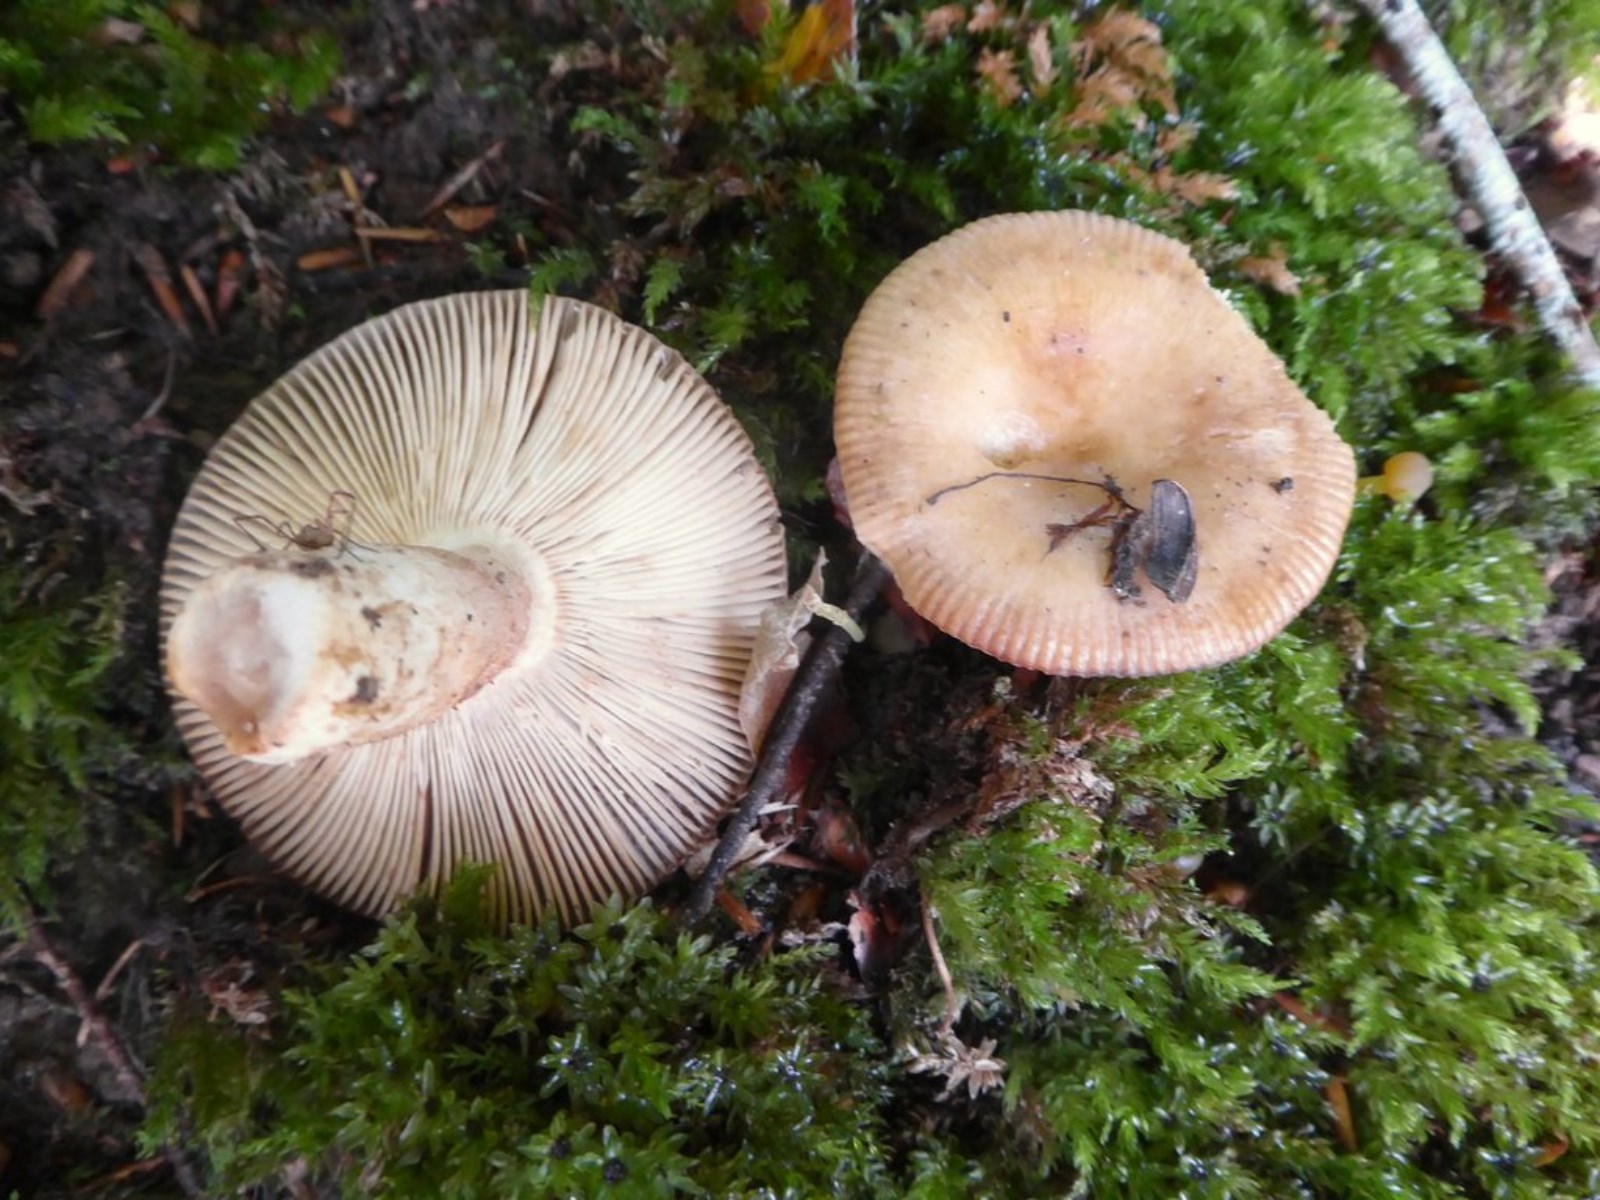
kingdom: Fungi
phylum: Basidiomycota
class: Agaricomycetes
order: Russulales
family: Russulaceae
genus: Russula
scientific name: Russula
